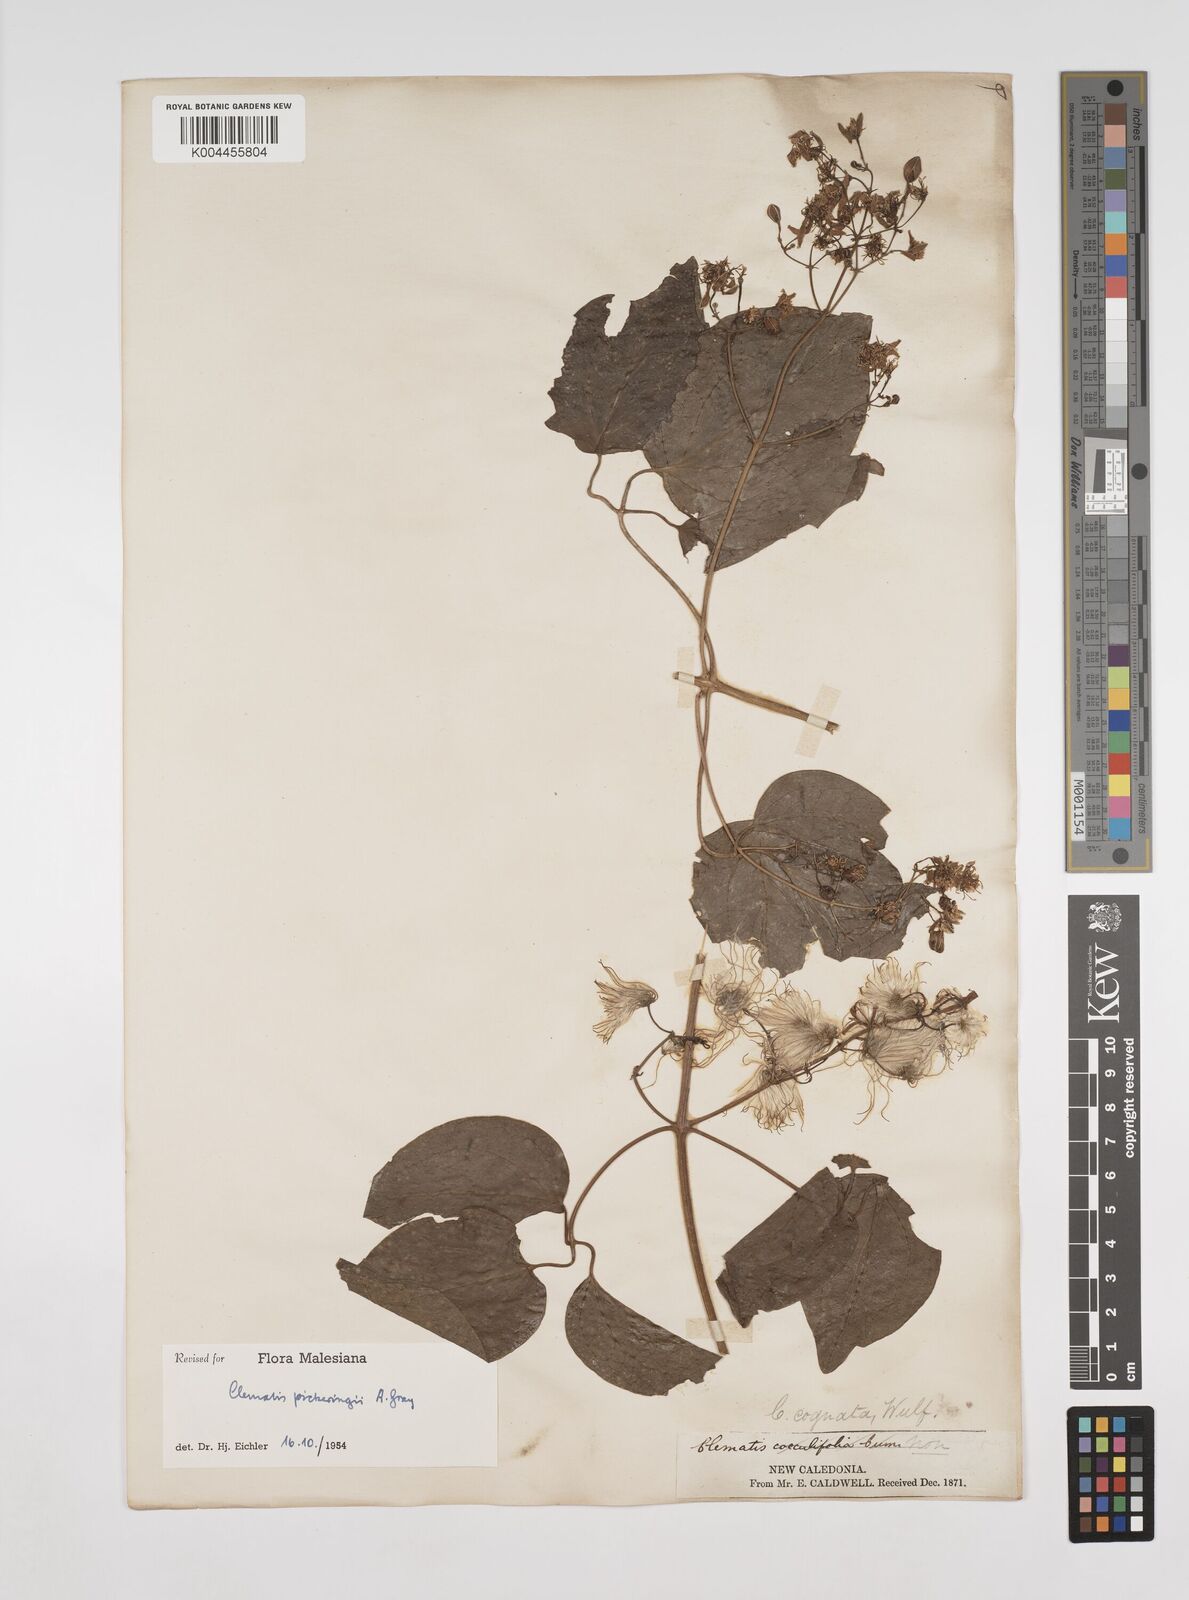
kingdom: Plantae
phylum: Tracheophyta
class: Magnoliopsida
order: Ranunculales
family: Ranunculaceae
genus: Clematis
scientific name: Clematis pickeringii
